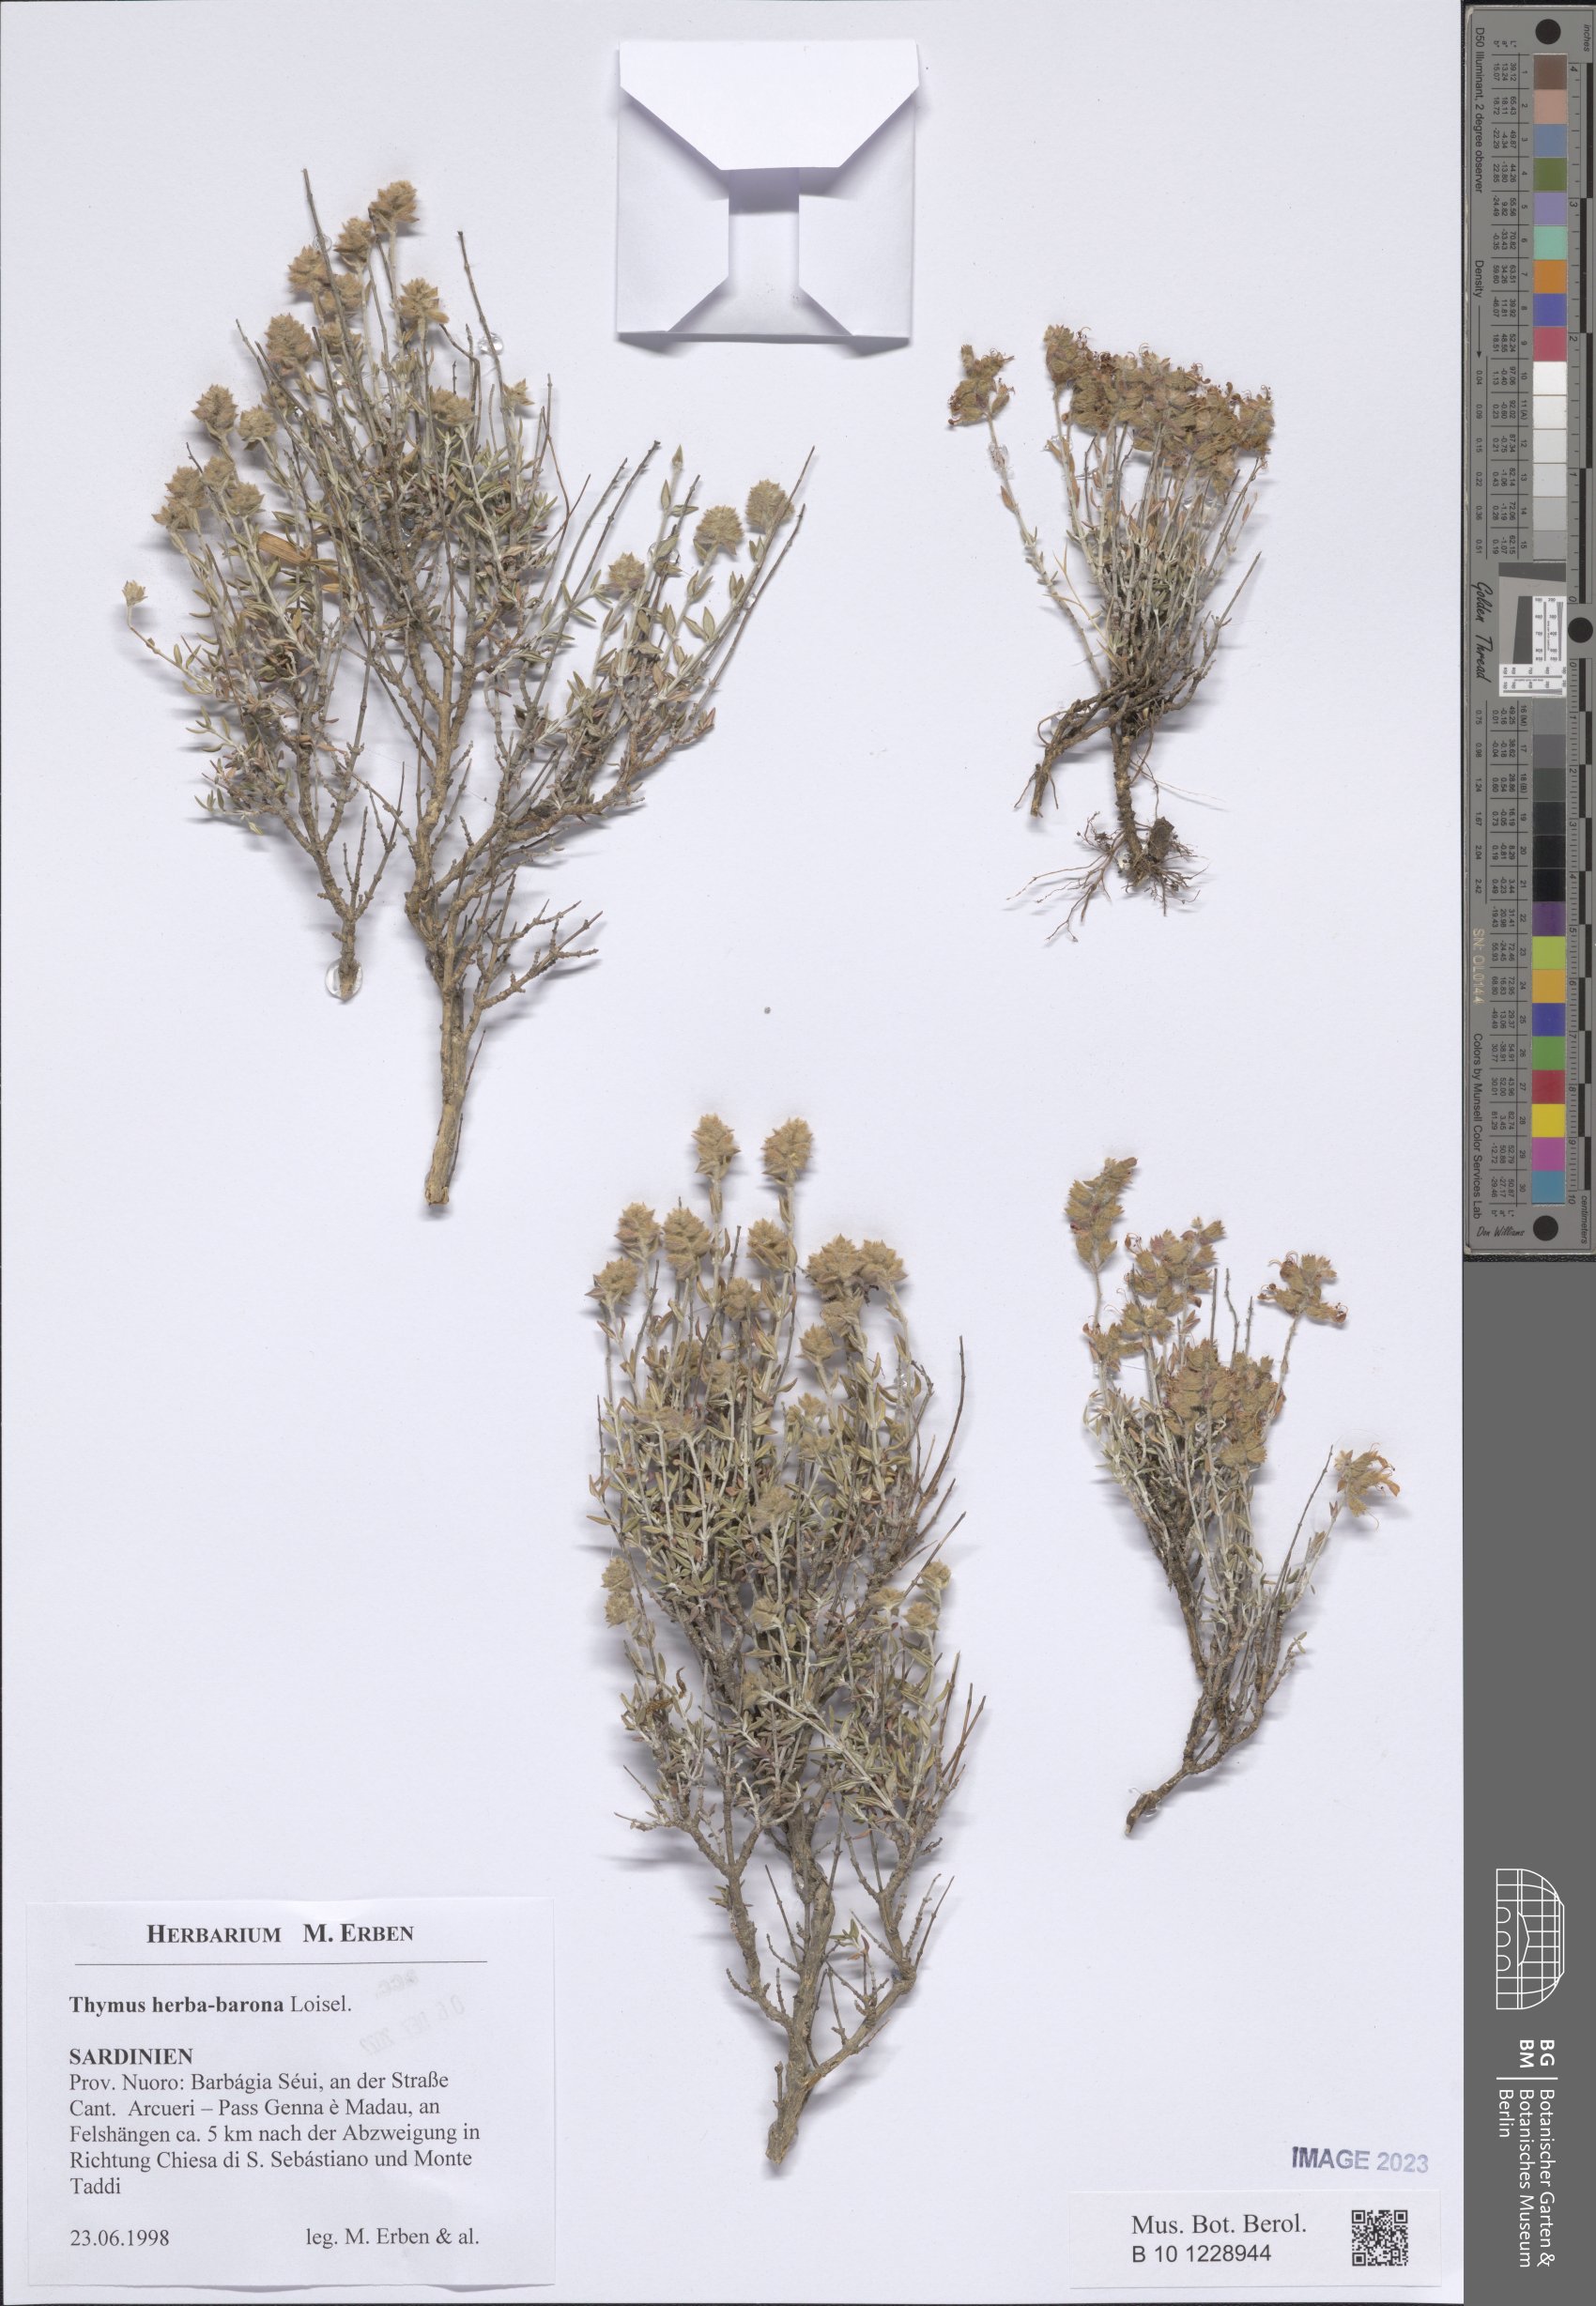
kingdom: Plantae
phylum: Tracheophyta
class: Magnoliopsida
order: Lamiales
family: Lamiaceae
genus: Thymus
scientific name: Thymus herba-barona
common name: Caraway thyme
